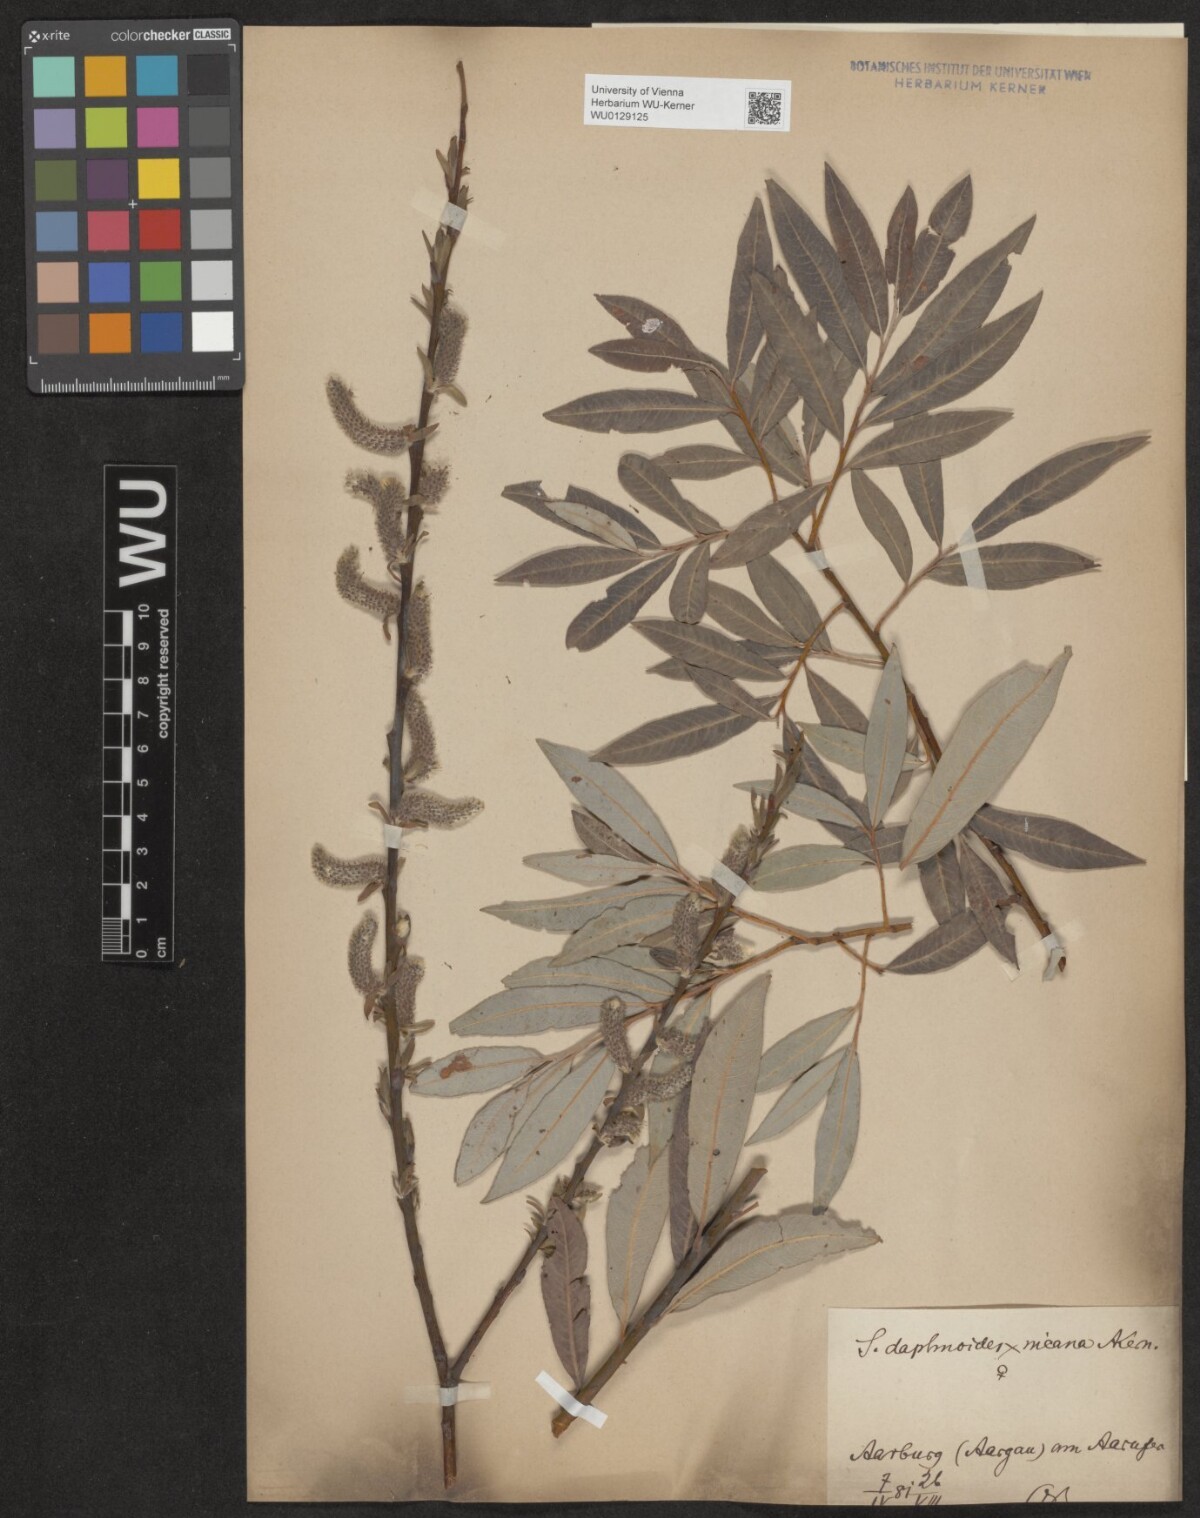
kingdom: Plantae
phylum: Tracheophyta
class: Magnoliopsida
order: Malpighiales
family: Salicaceae
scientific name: Salicaceae
